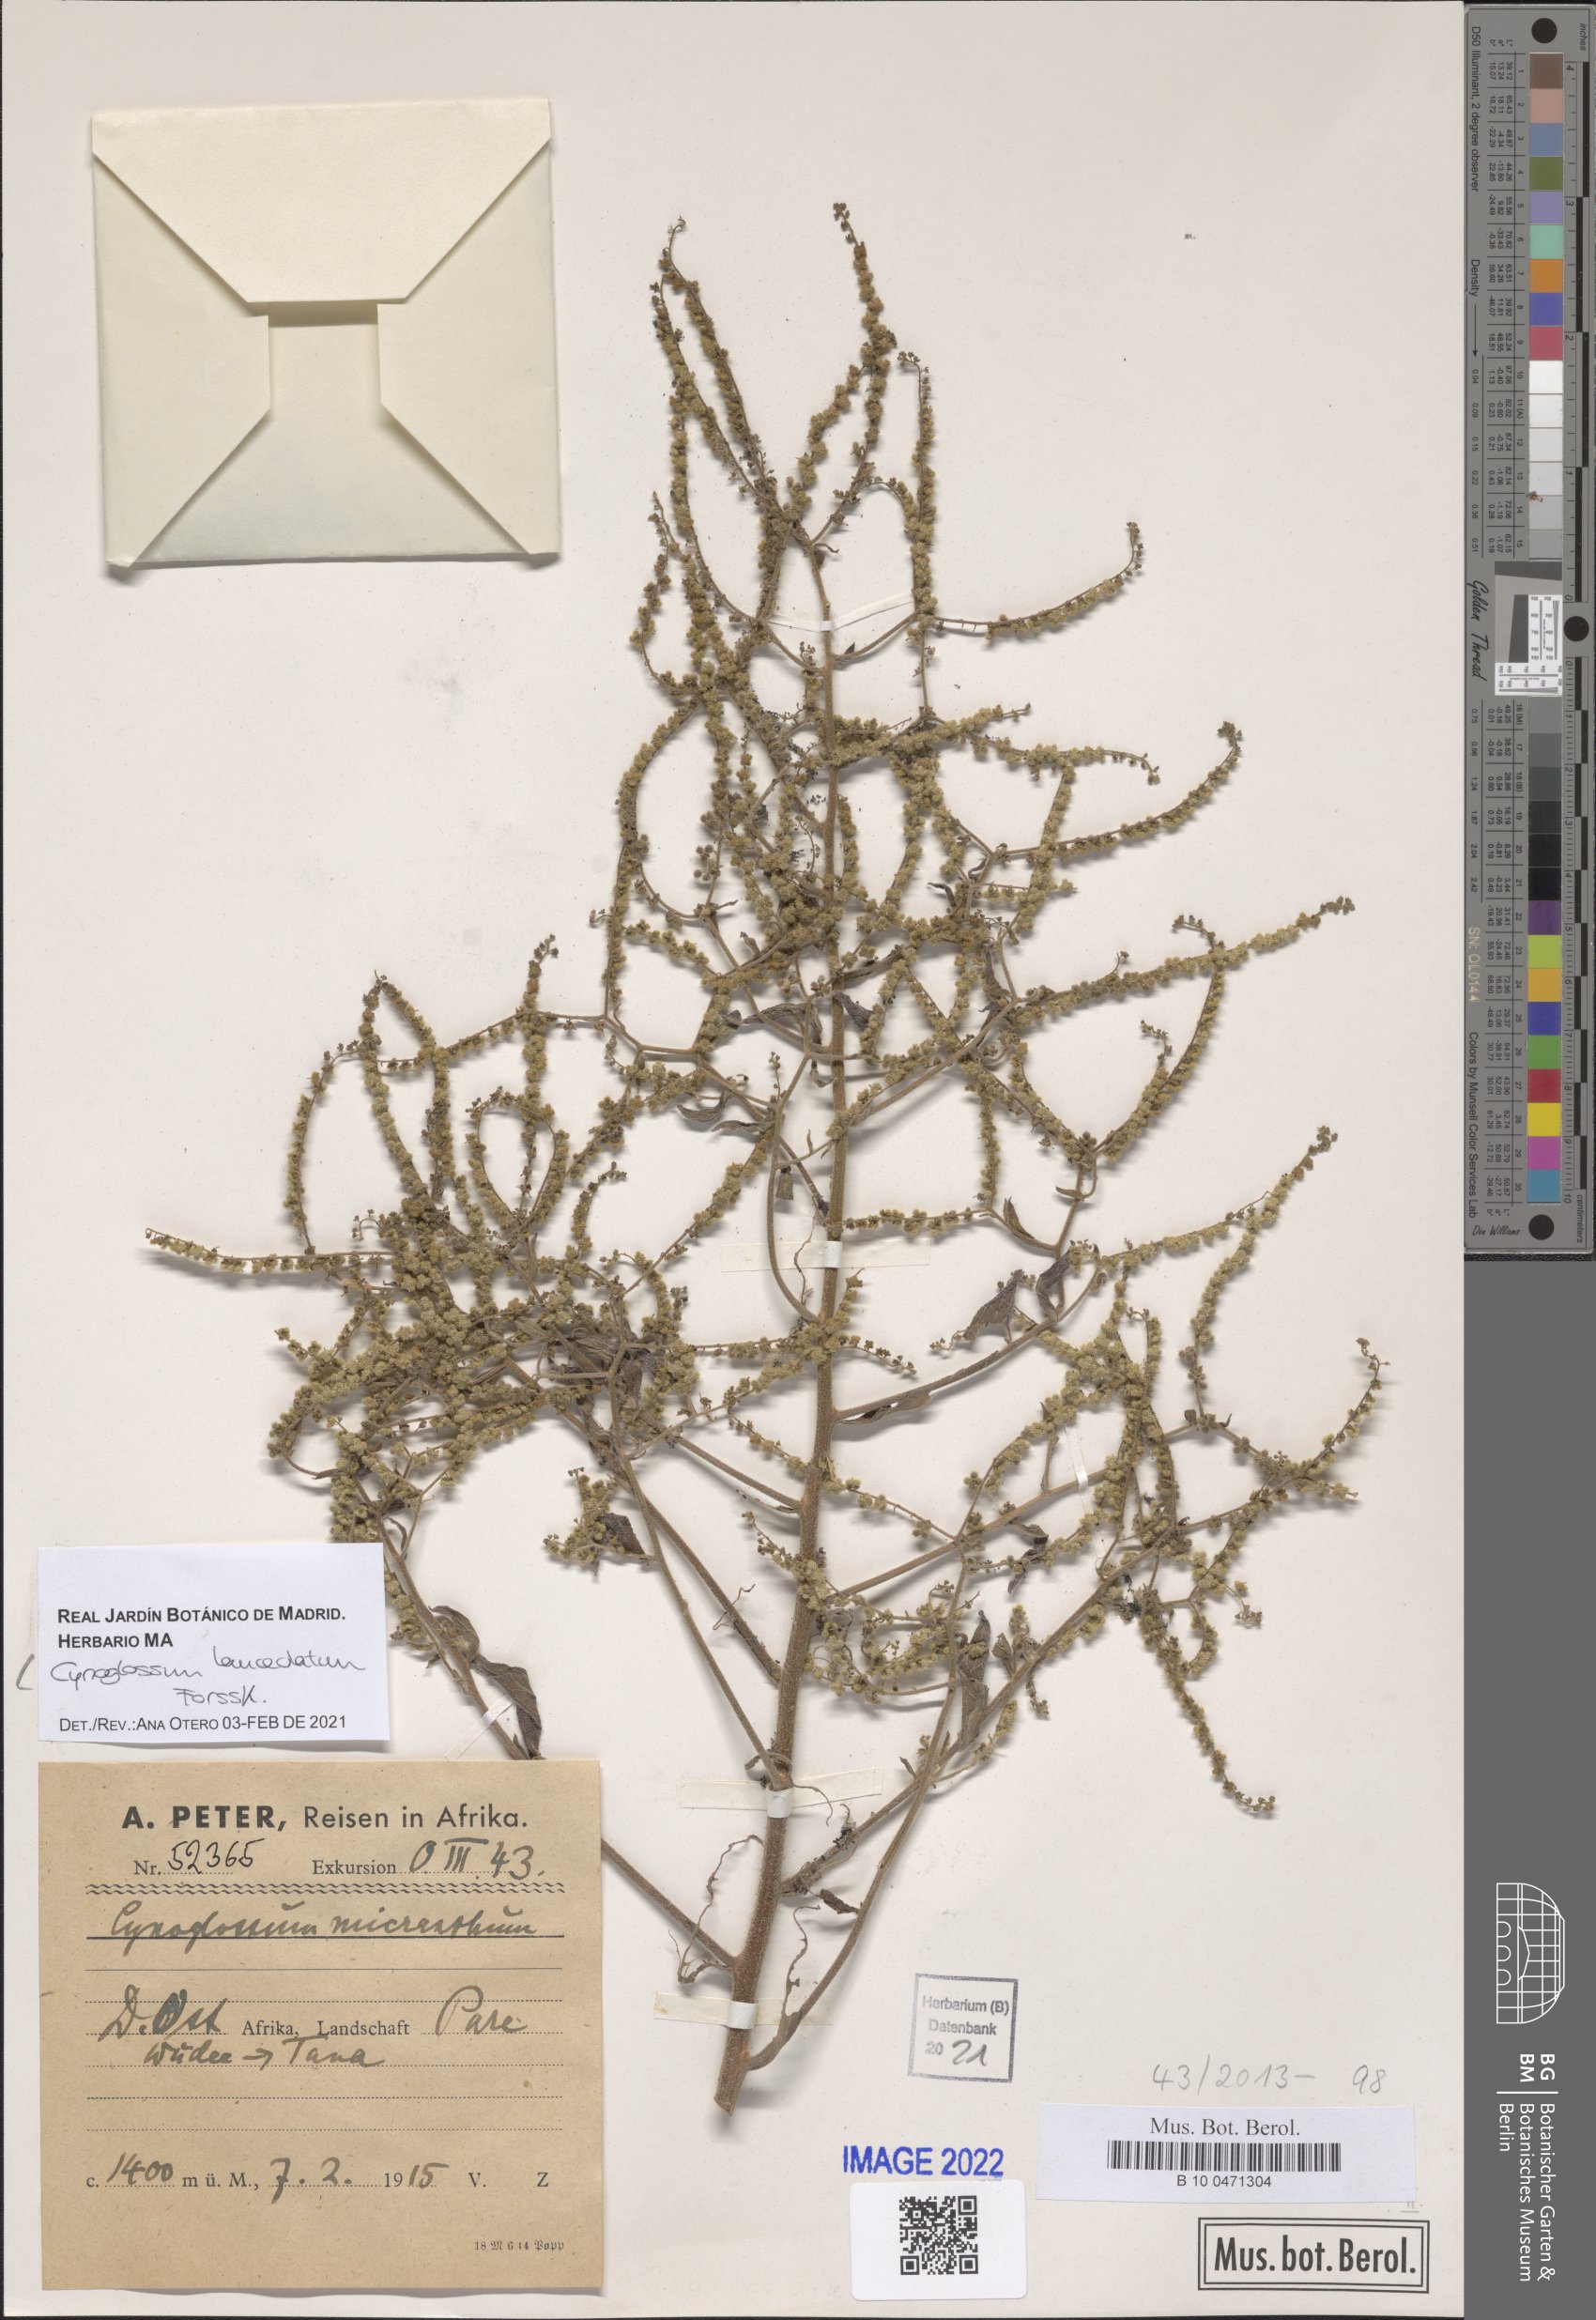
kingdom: Plantae
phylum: Tracheophyta
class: Magnoliopsida
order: Boraginales
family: Boraginaceae
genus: Paracynoglossum
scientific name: Paracynoglossum lanceolatum
